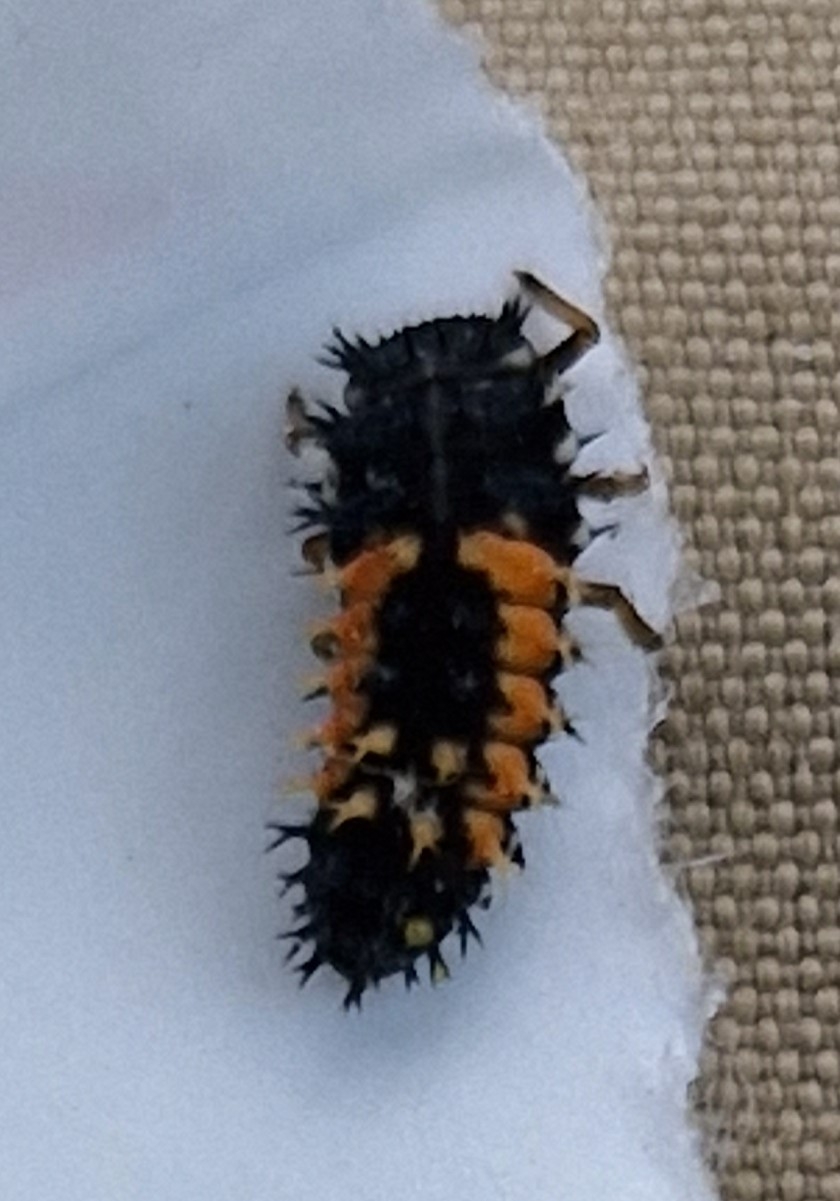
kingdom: Animalia
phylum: Arthropoda
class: Insecta
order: Coleoptera
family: Coccinellidae
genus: Harmonia
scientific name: Harmonia axyridis
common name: Harlekinmariehøne
